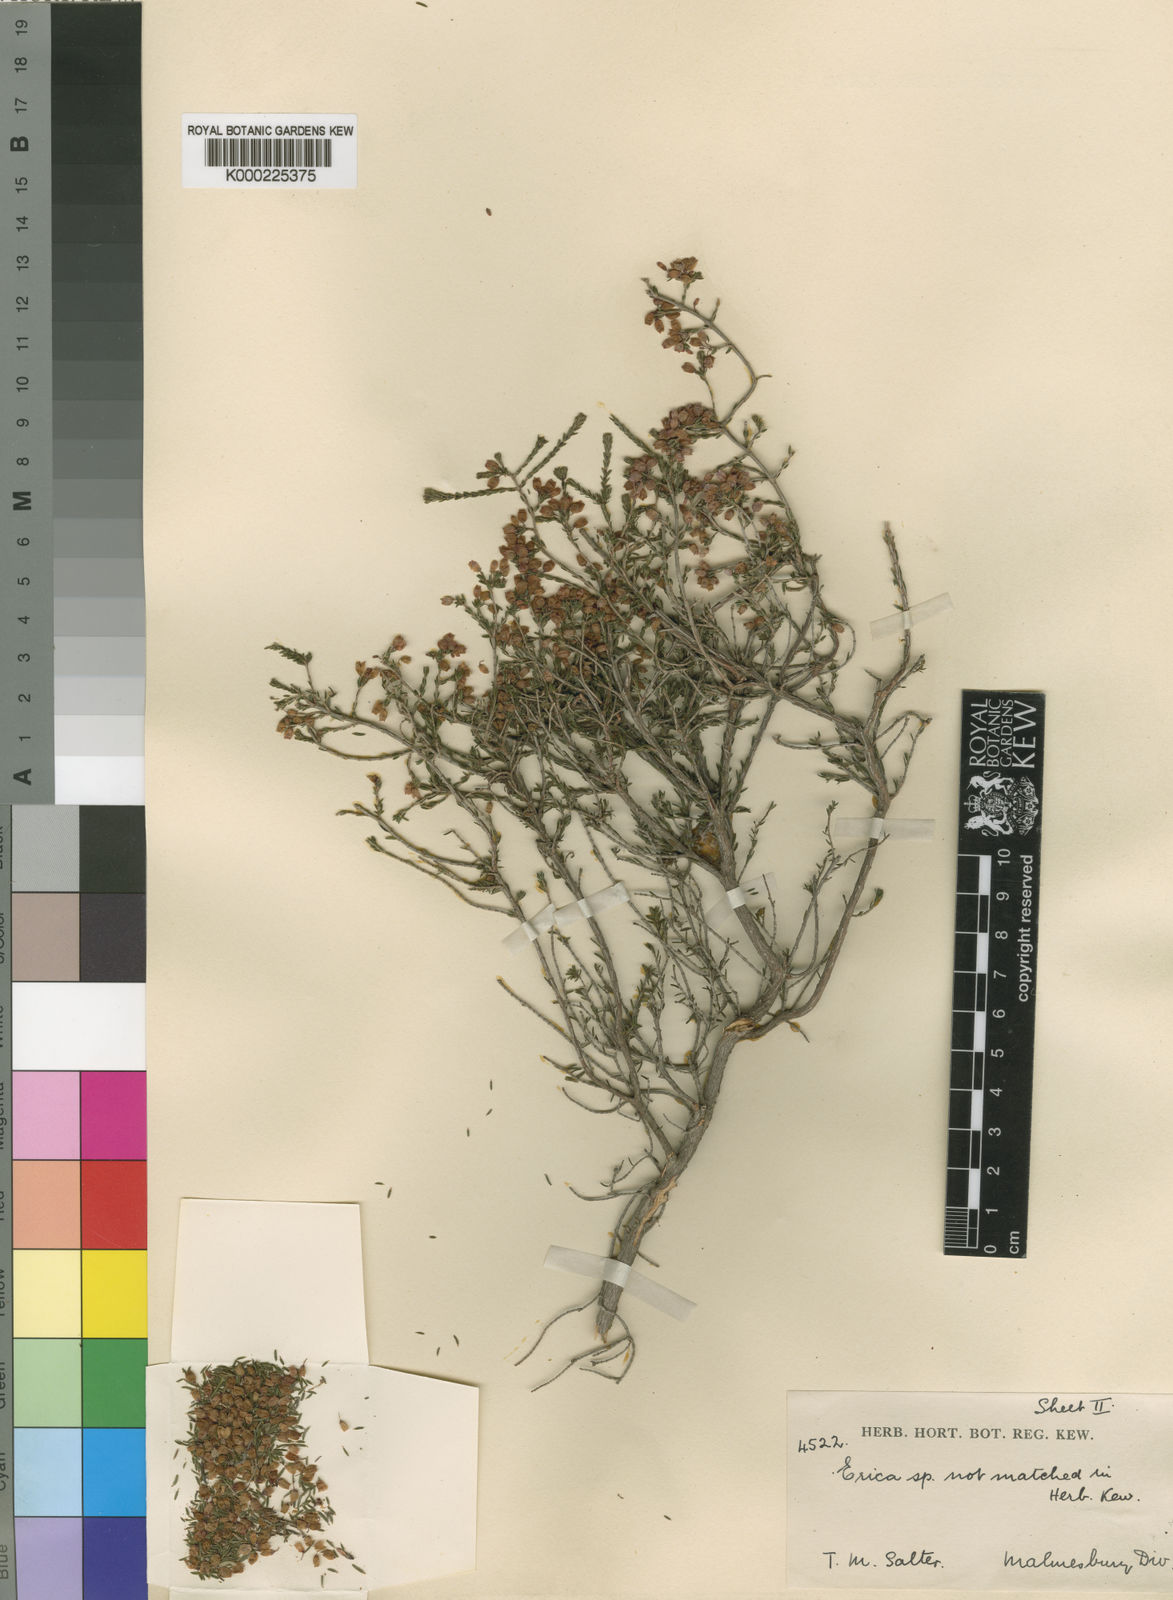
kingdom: Plantae
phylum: Tracheophyta
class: Magnoliopsida
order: Ericales
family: Ericaceae
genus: Erica
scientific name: Erica trichostigma
